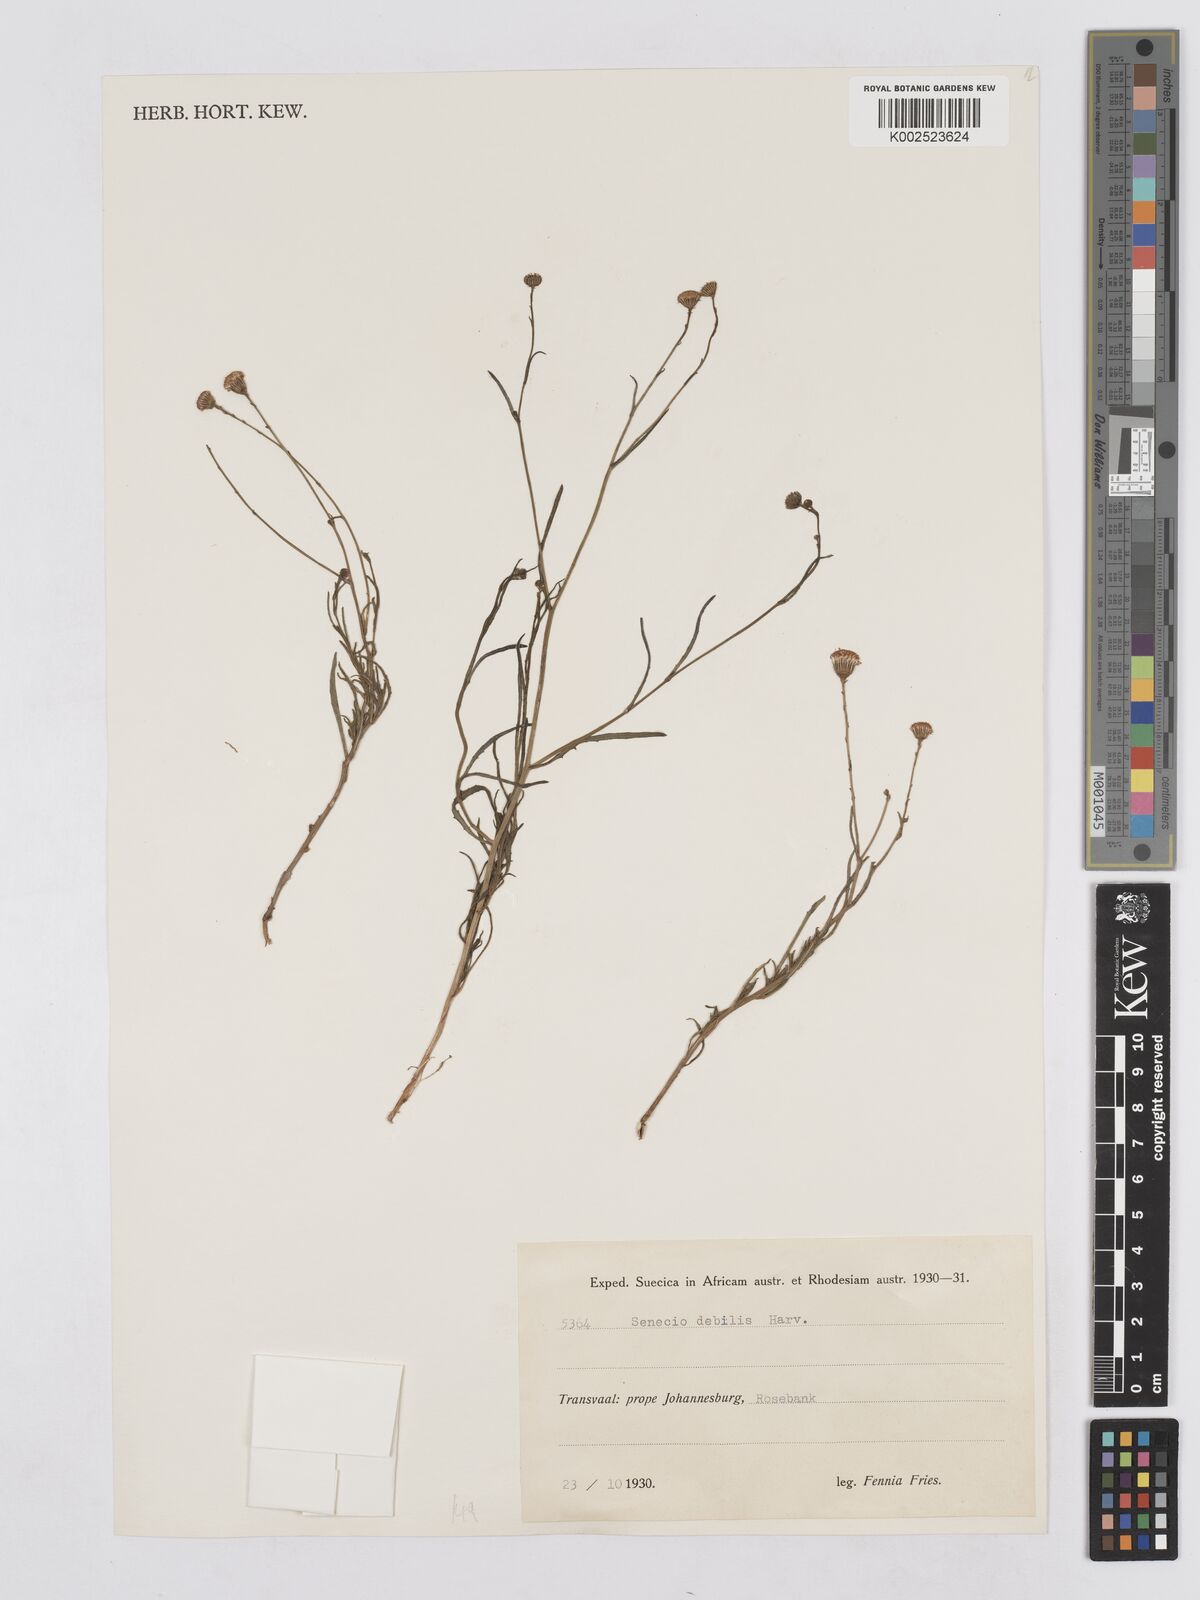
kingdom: Plantae
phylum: Tracheophyta
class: Magnoliopsida
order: Asterales
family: Asteraceae
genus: Senecio
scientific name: Senecio infirmus
